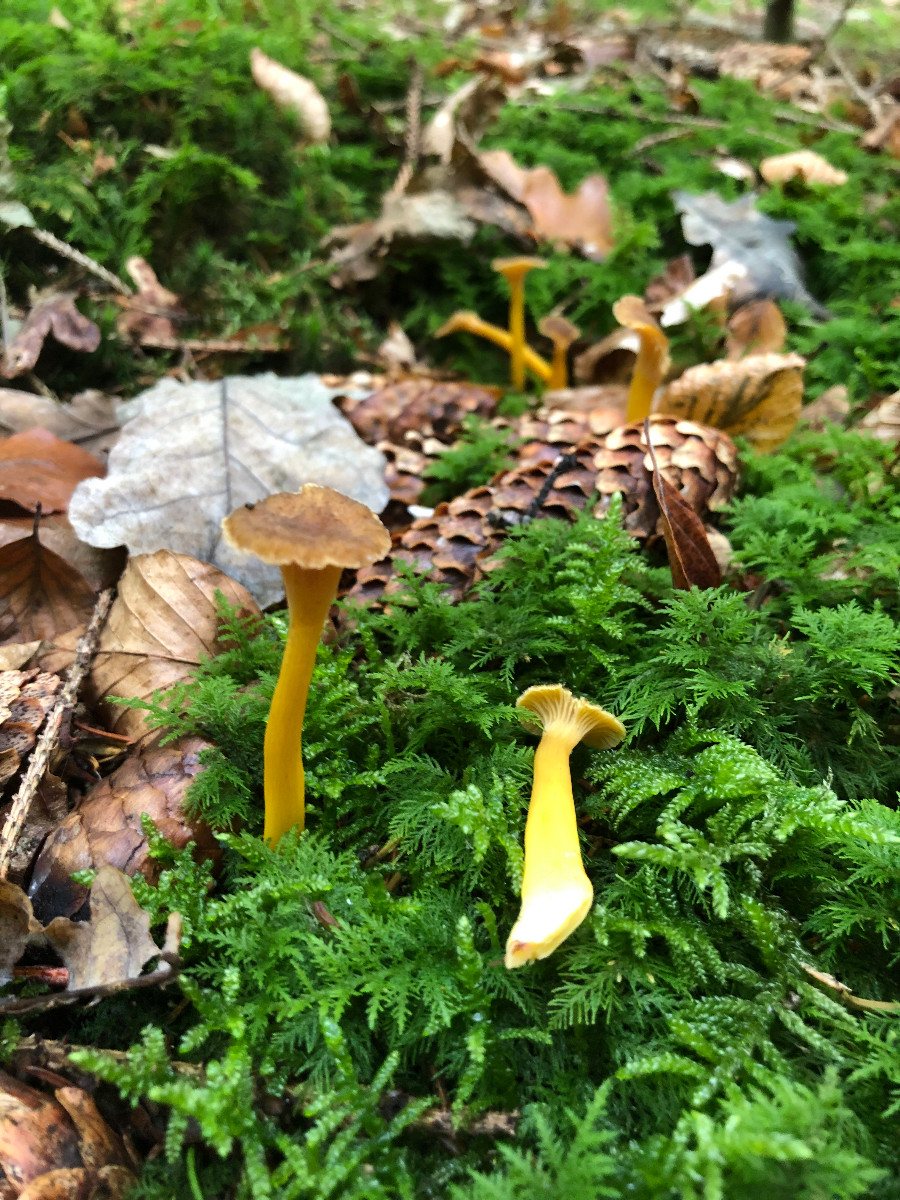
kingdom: Fungi
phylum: Basidiomycota
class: Agaricomycetes
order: Cantharellales
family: Hydnaceae
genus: Craterellus
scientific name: Craterellus tubaeformis
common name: tragt-kantarel
